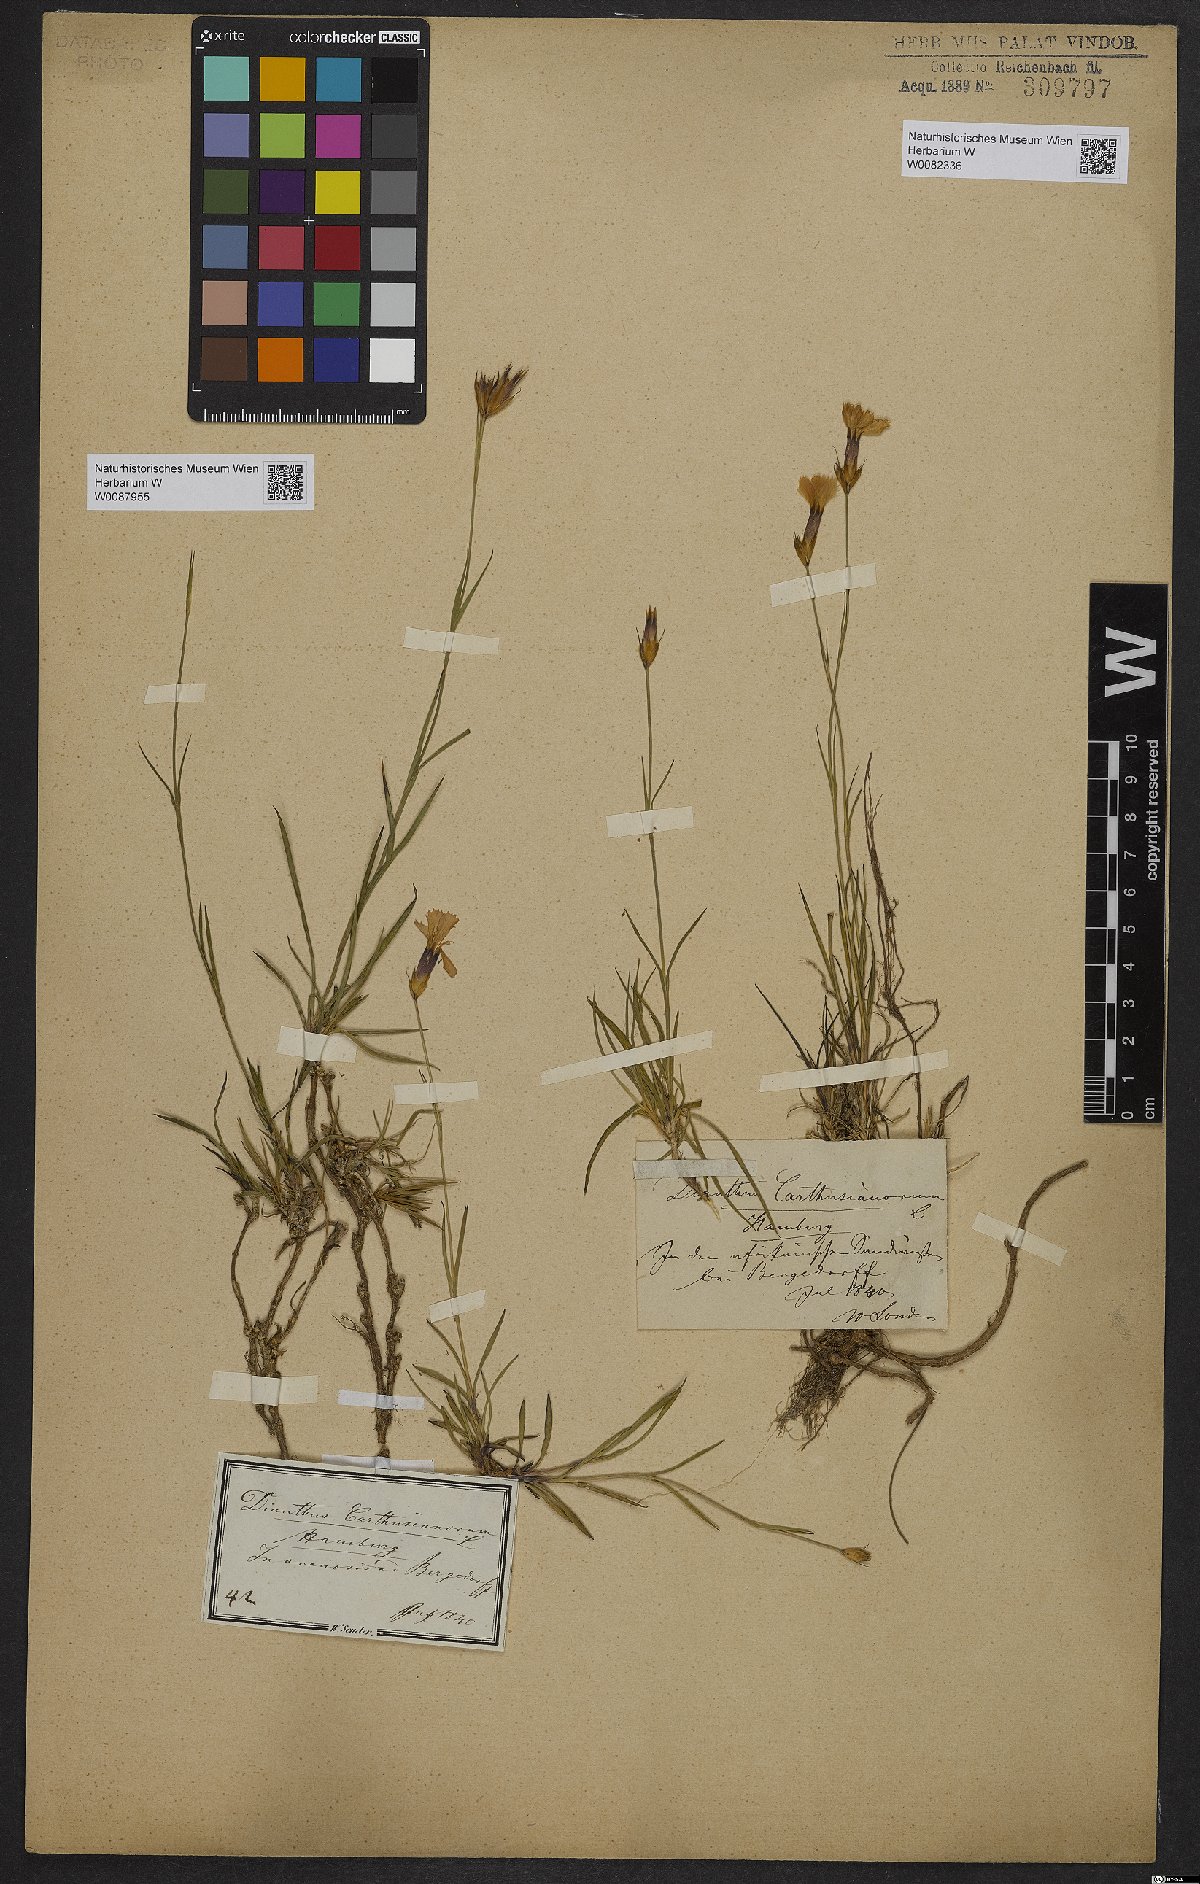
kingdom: Plantae
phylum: Tracheophyta
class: Magnoliopsida
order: Caryophyllales
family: Caryophyllaceae
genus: Dianthus
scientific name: Dianthus carthusianorum
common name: Carthusian pink
